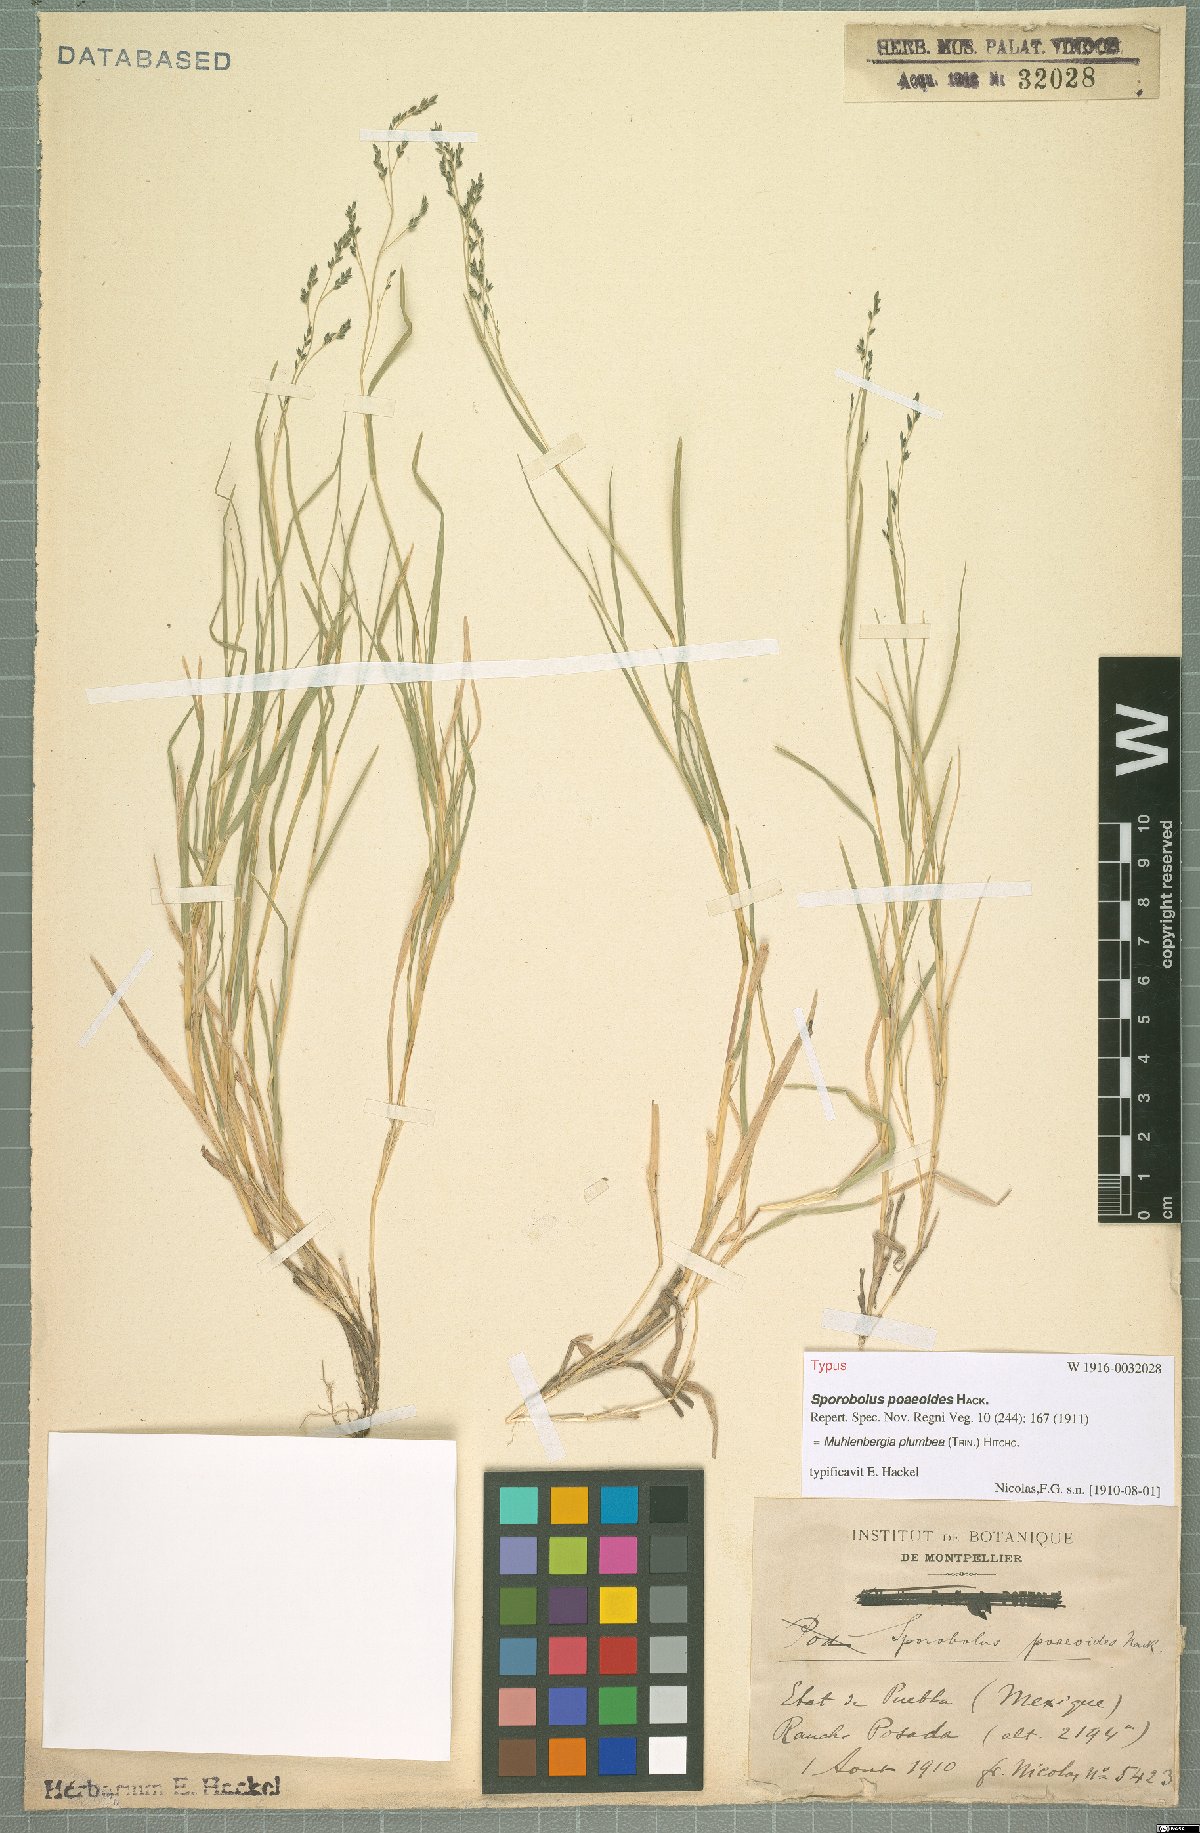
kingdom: Plantae
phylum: Tracheophyta
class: Liliopsida
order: Poales
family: Poaceae
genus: Muhlenbergia
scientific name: Muhlenbergia plumbea
